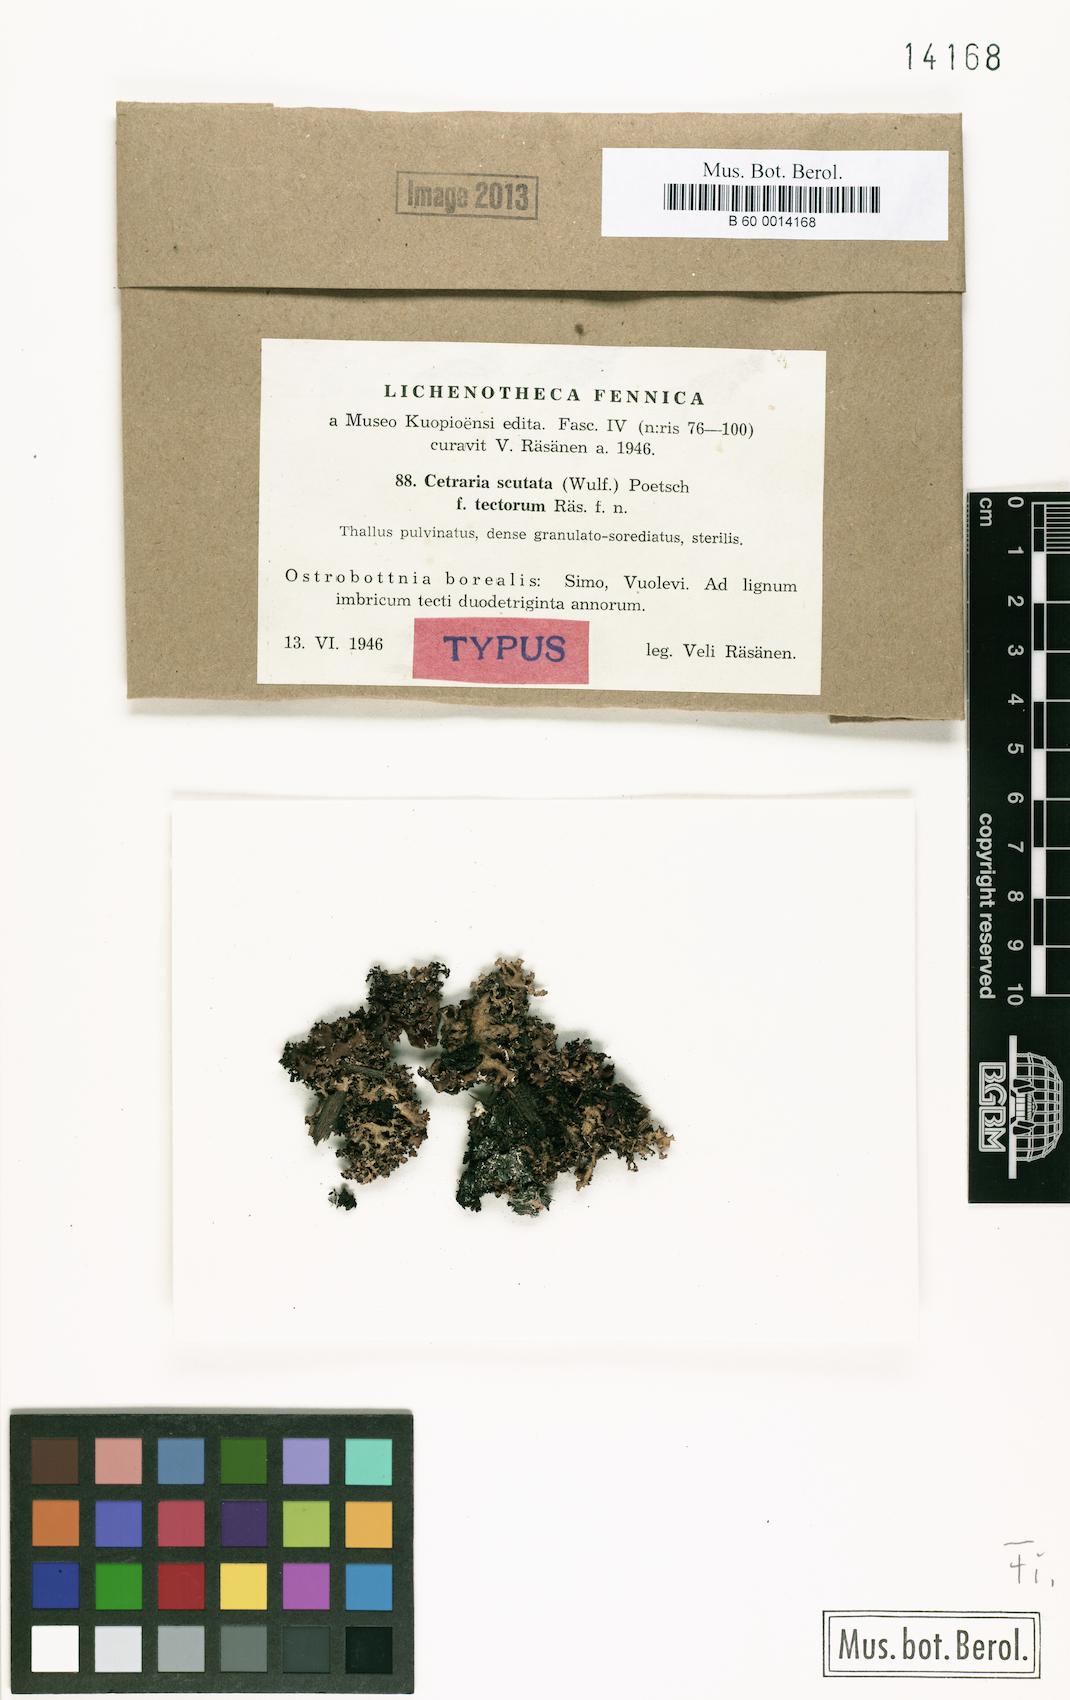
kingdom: Fungi
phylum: Ascomycota
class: Lecanoromycetes
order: Lecanorales
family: Parmeliaceae
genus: Cetraria
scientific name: Cetraria sepincola
